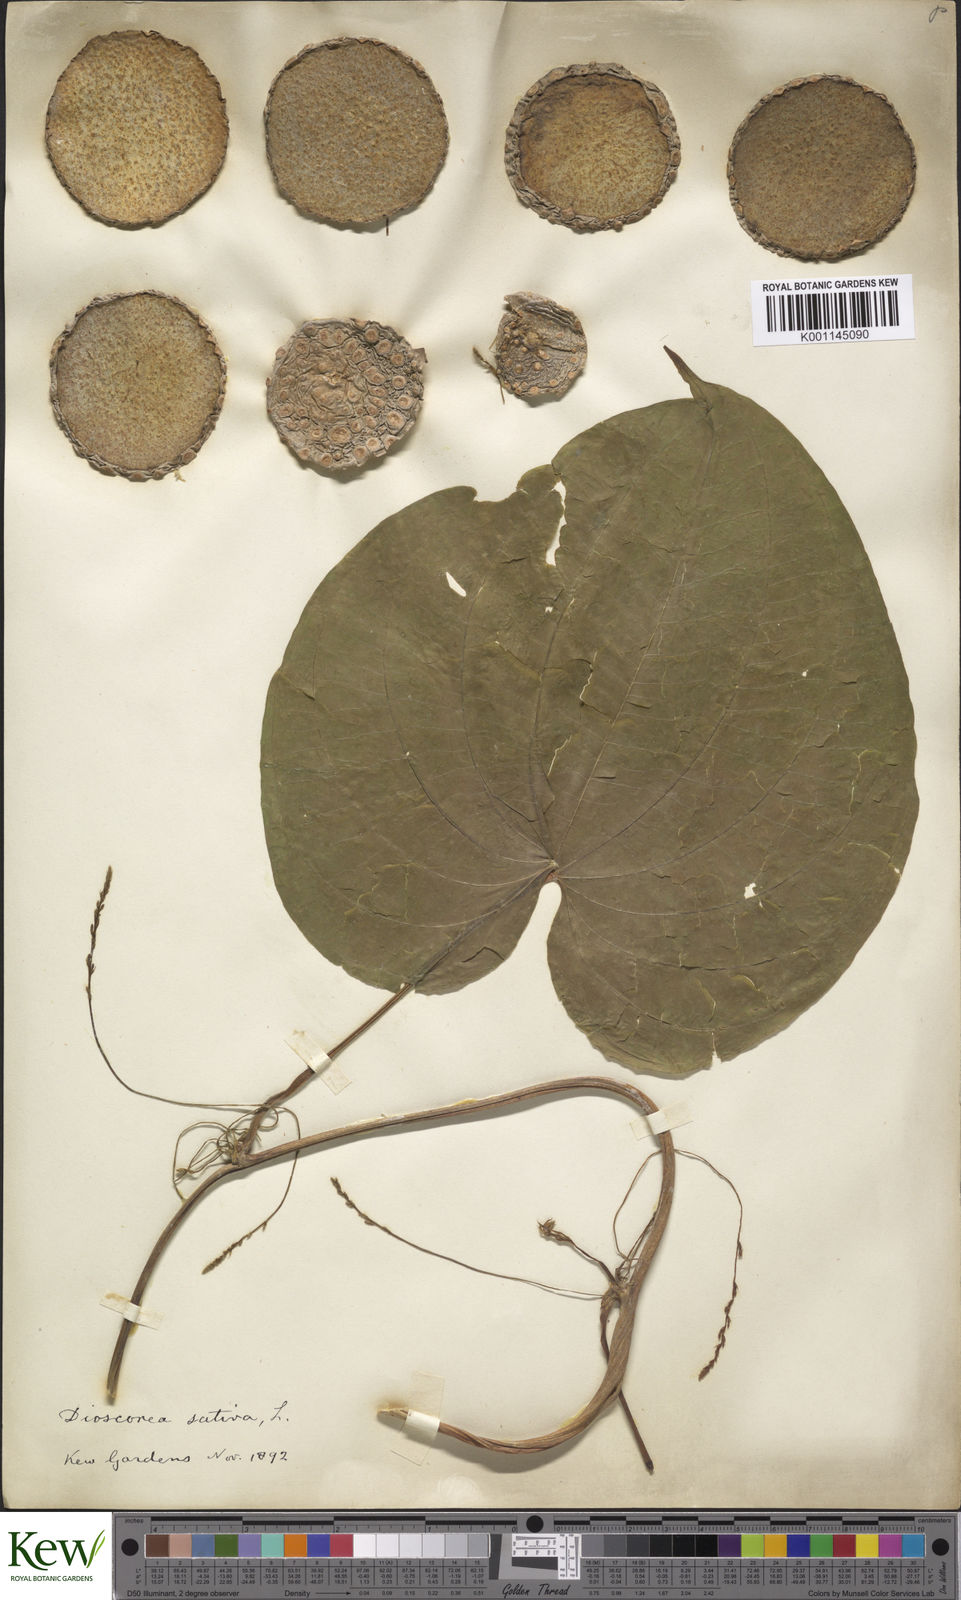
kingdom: Plantae
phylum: Tracheophyta
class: Liliopsida
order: Dioscoreales
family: Dioscoreaceae
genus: Dioscorea
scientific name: Dioscorea bulbifera
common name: Air yam
